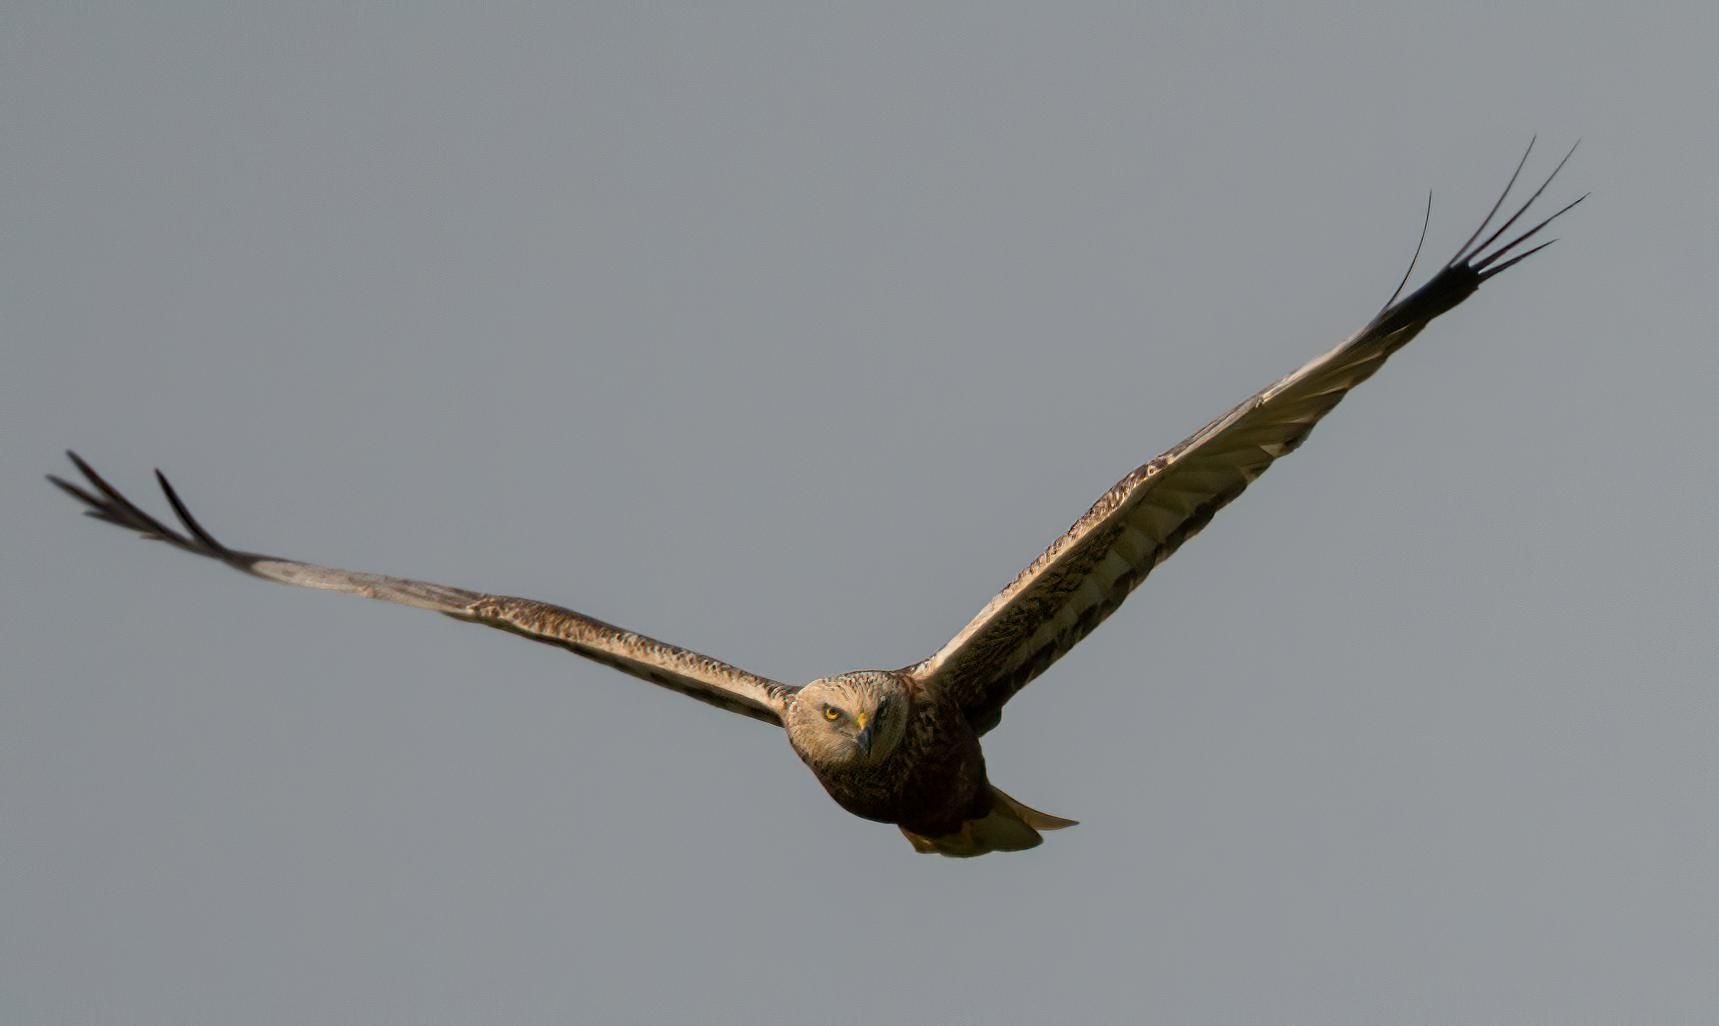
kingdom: Animalia
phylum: Chordata
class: Aves
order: Accipitriformes
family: Accipitridae
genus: Circus
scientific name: Circus aeruginosus
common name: Rørhøg
